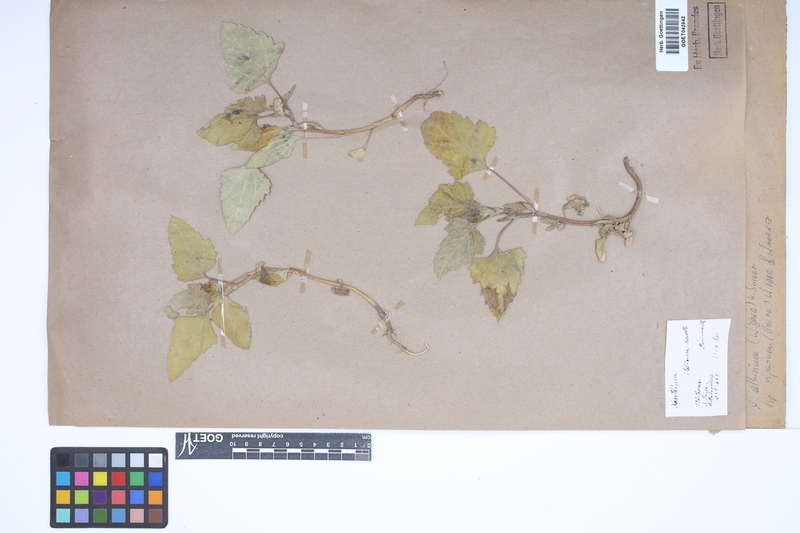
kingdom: Plantae
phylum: Tracheophyta
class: Magnoliopsida
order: Asterales
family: Asteraceae
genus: Xanthium
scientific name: Xanthium orientale
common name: Californian burr
